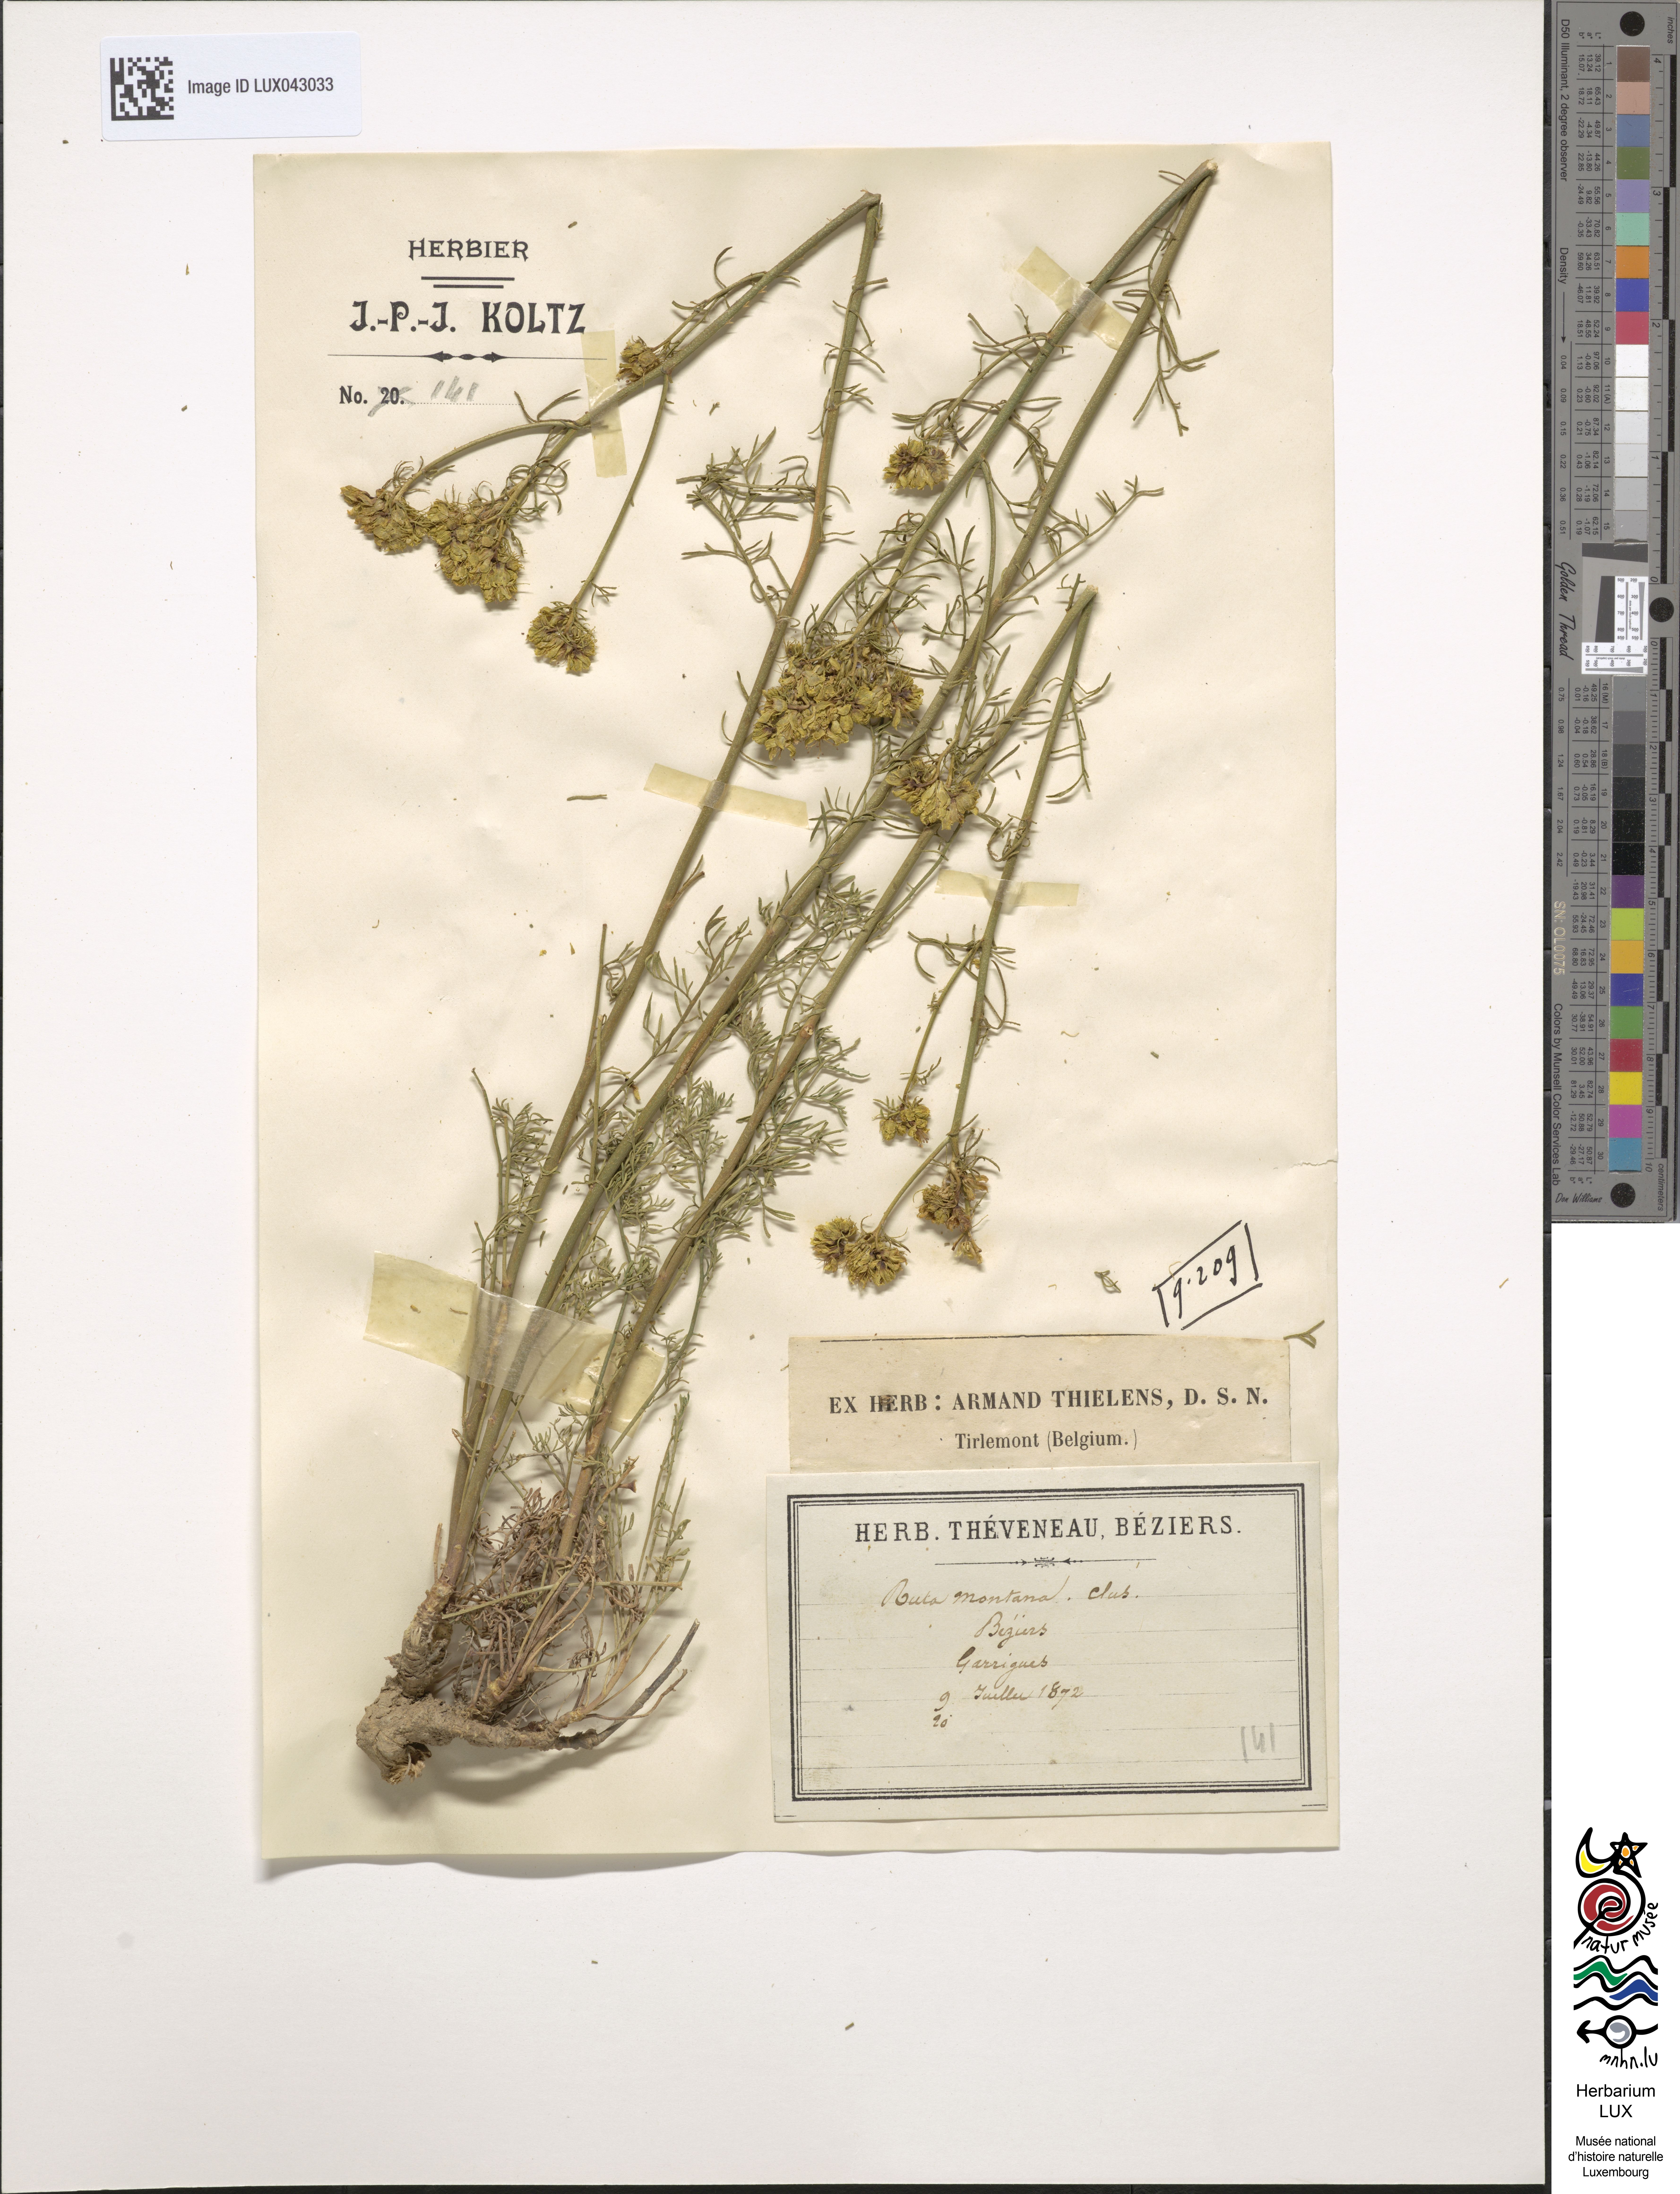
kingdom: Plantae
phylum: Tracheophyta
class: Magnoliopsida
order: Sapindales
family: Rutaceae
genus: Ruta
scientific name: Ruta montana
